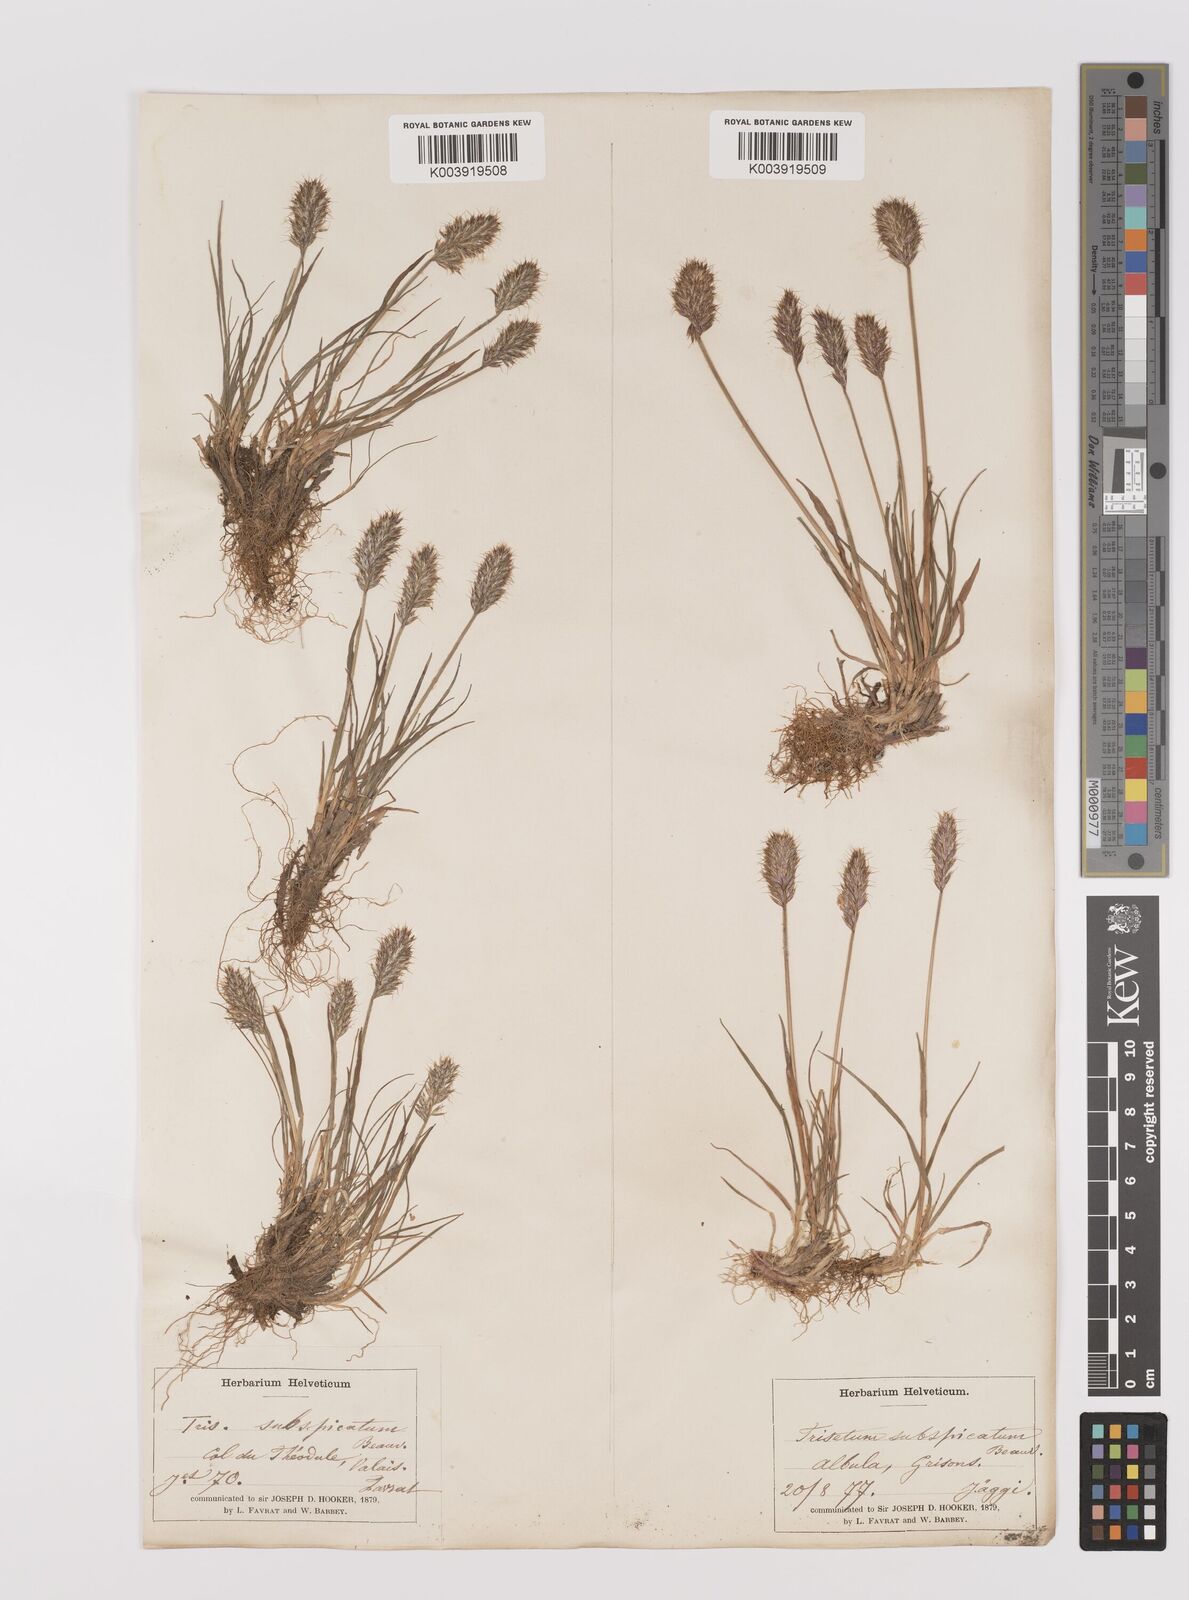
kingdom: Plantae
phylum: Tracheophyta
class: Liliopsida
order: Poales
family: Poaceae
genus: Koeleria
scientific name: Koeleria spicata
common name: Mountain trisetum
